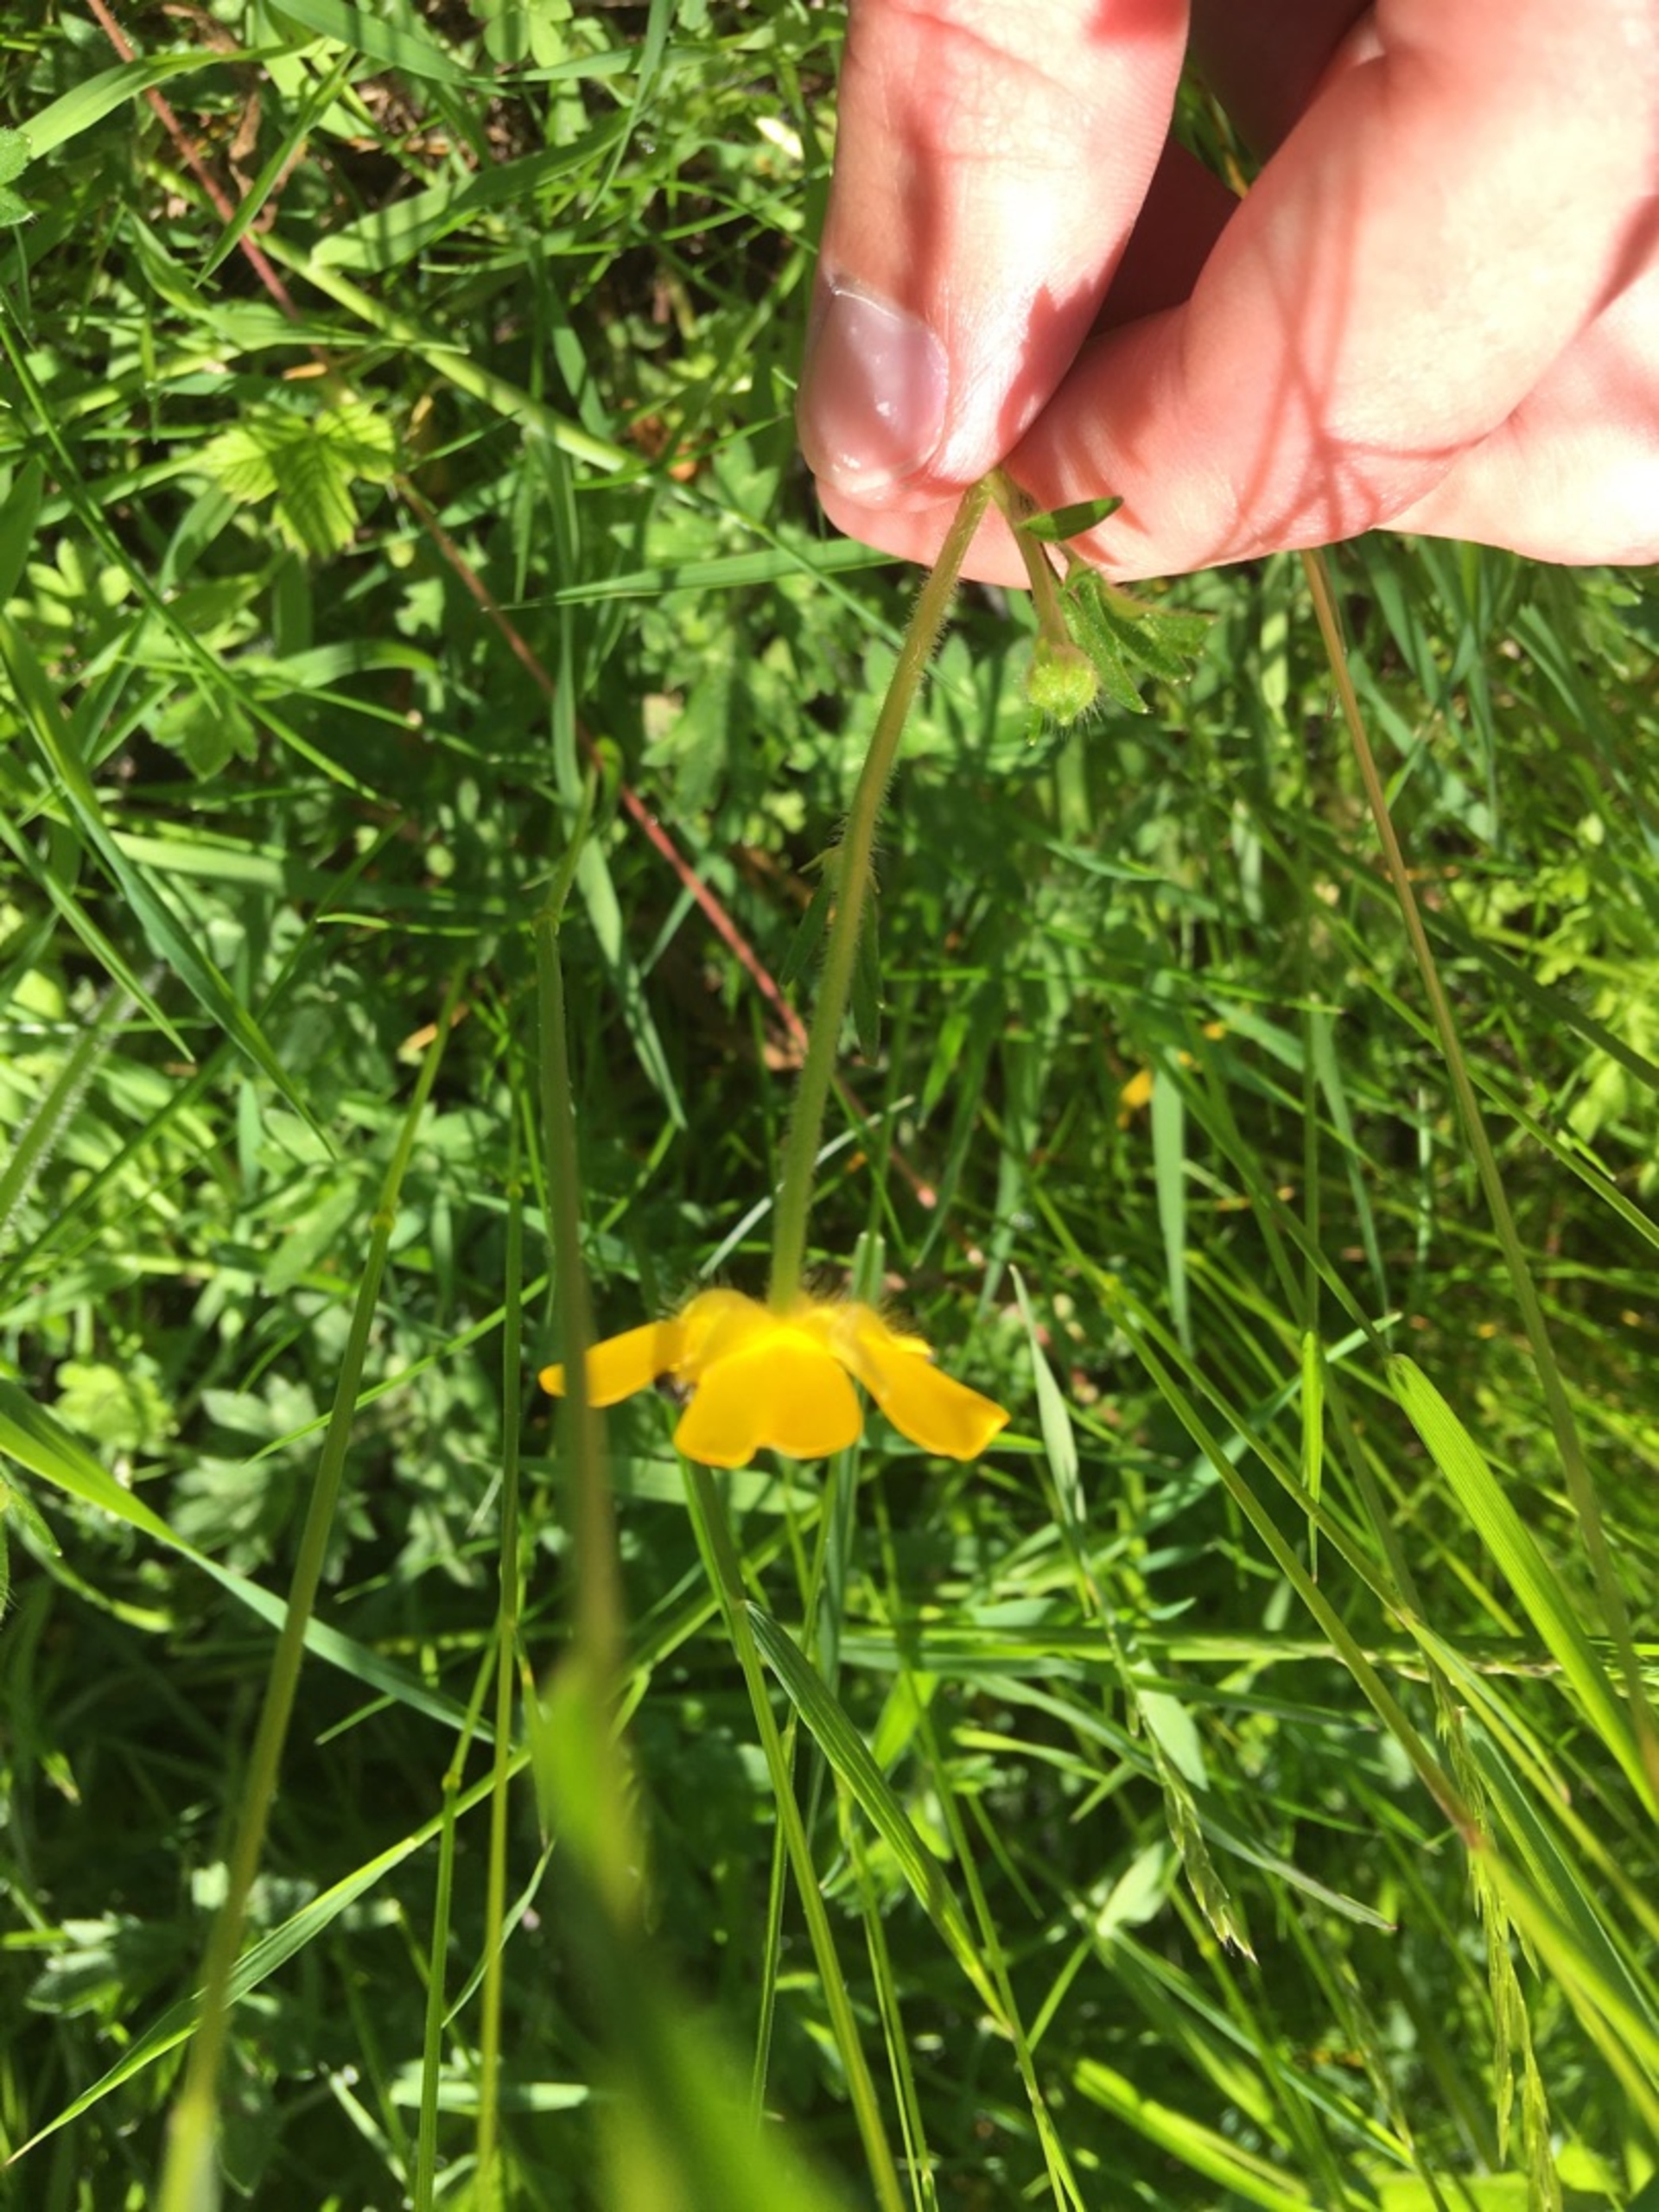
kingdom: Plantae
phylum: Tracheophyta
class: Magnoliopsida
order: Ranunculales
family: Ranunculaceae
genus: Ranunculus
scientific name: Ranunculus repens
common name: Lav ranunkel
